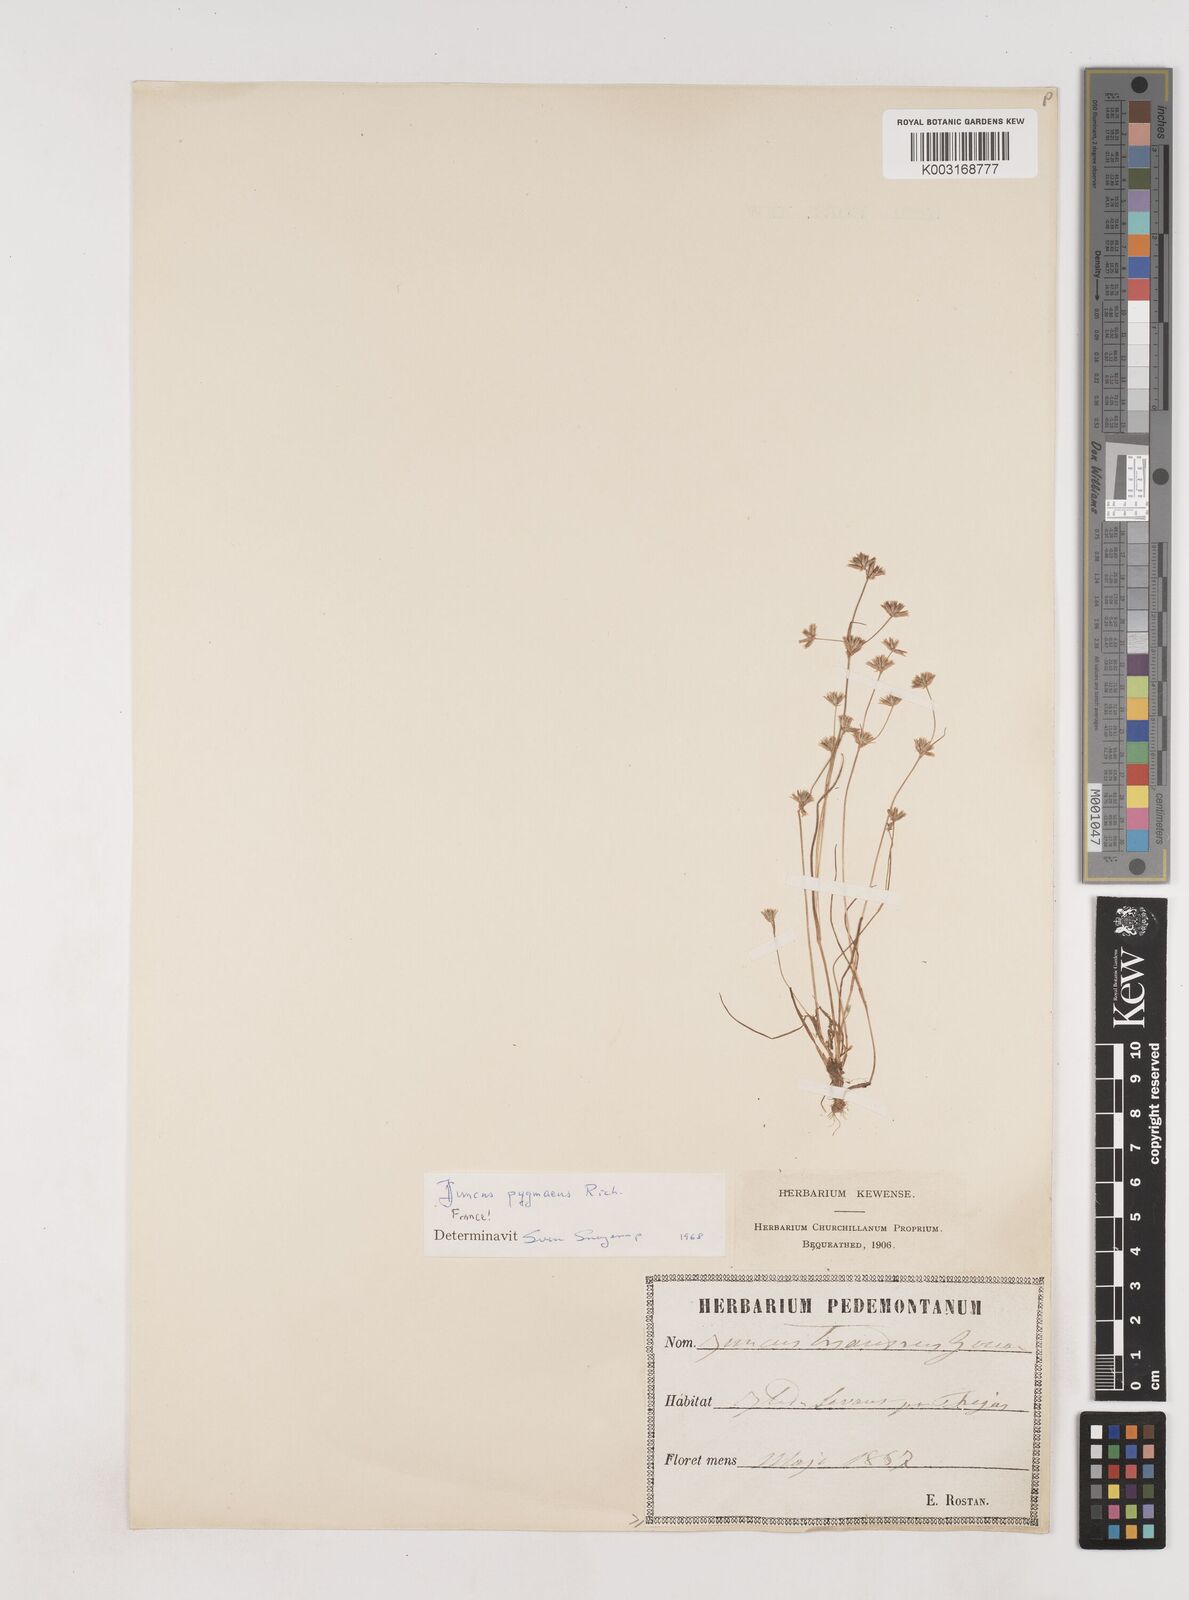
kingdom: Plantae
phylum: Tracheophyta
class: Liliopsida
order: Poales
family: Juncaceae
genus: Juncus
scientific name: Juncus pygmaeus
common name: Pigmy rush
